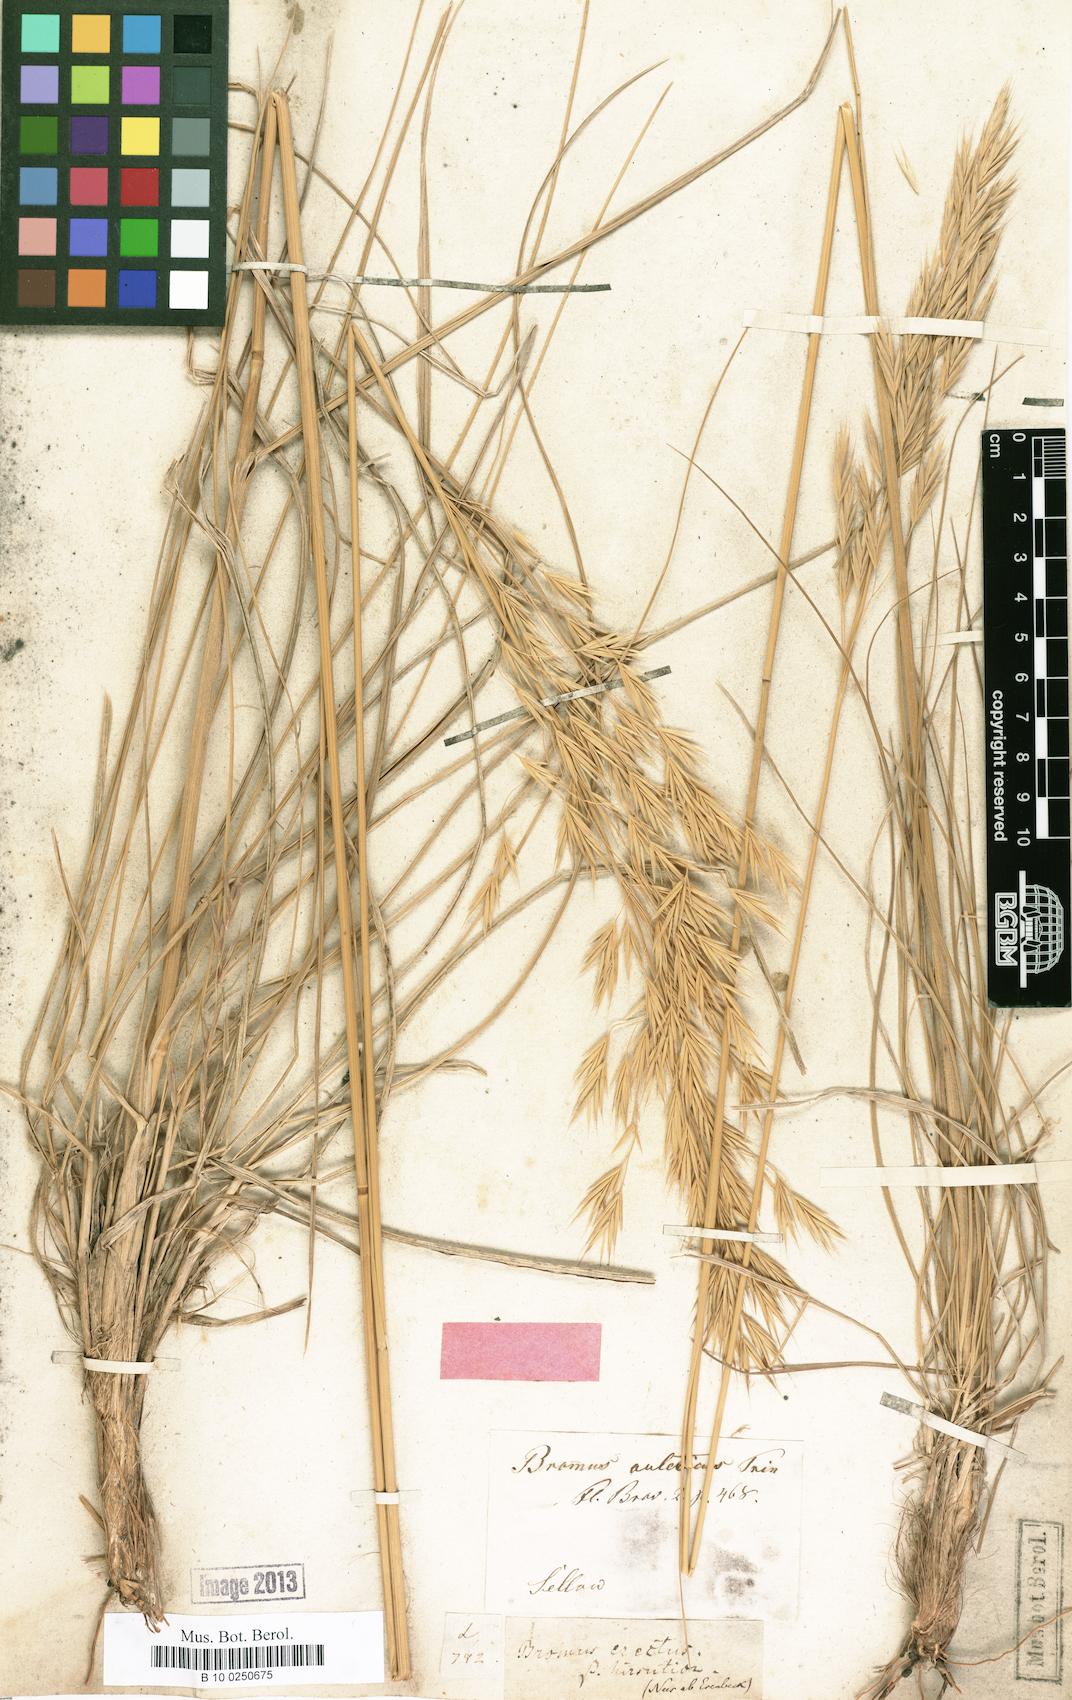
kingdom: Plantae
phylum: Tracheophyta
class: Liliopsida
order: Poales
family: Poaceae
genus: Bromus
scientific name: Bromus auleticus
